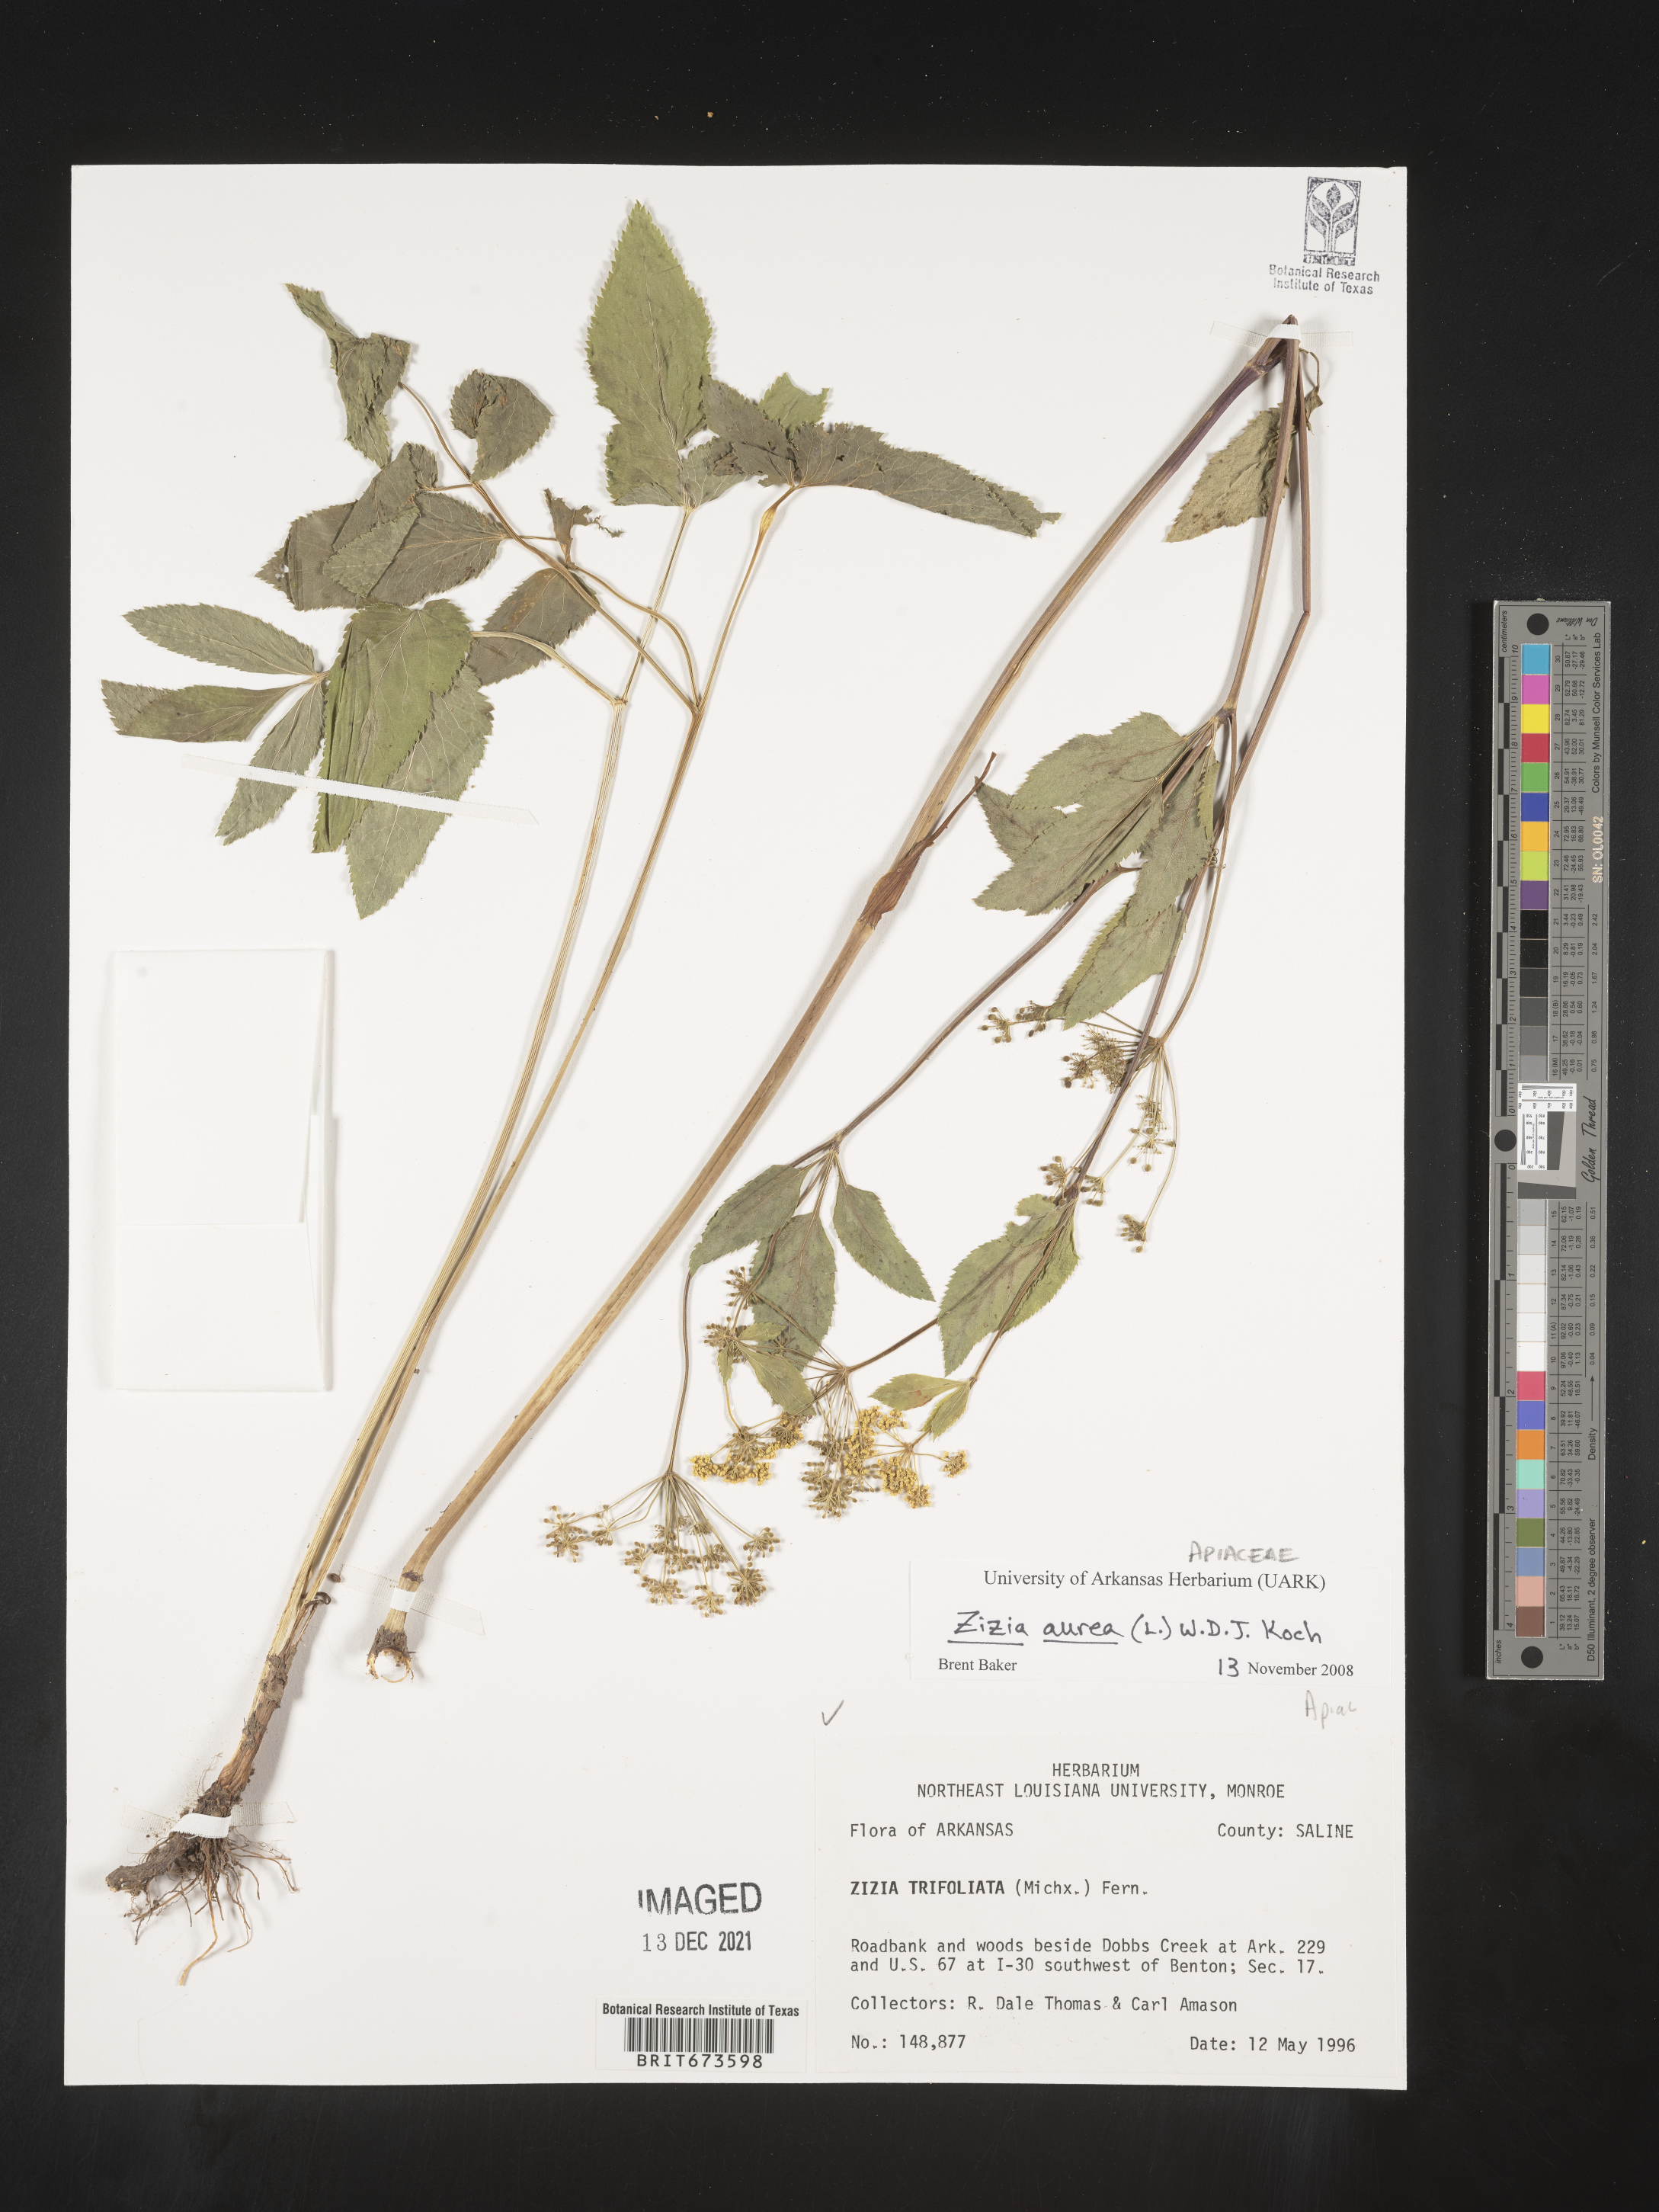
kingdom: Plantae
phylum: Tracheophyta
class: Magnoliopsida
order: Apiales
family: Apiaceae
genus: Zizia
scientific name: Zizia aurea
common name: Golden alexanders
